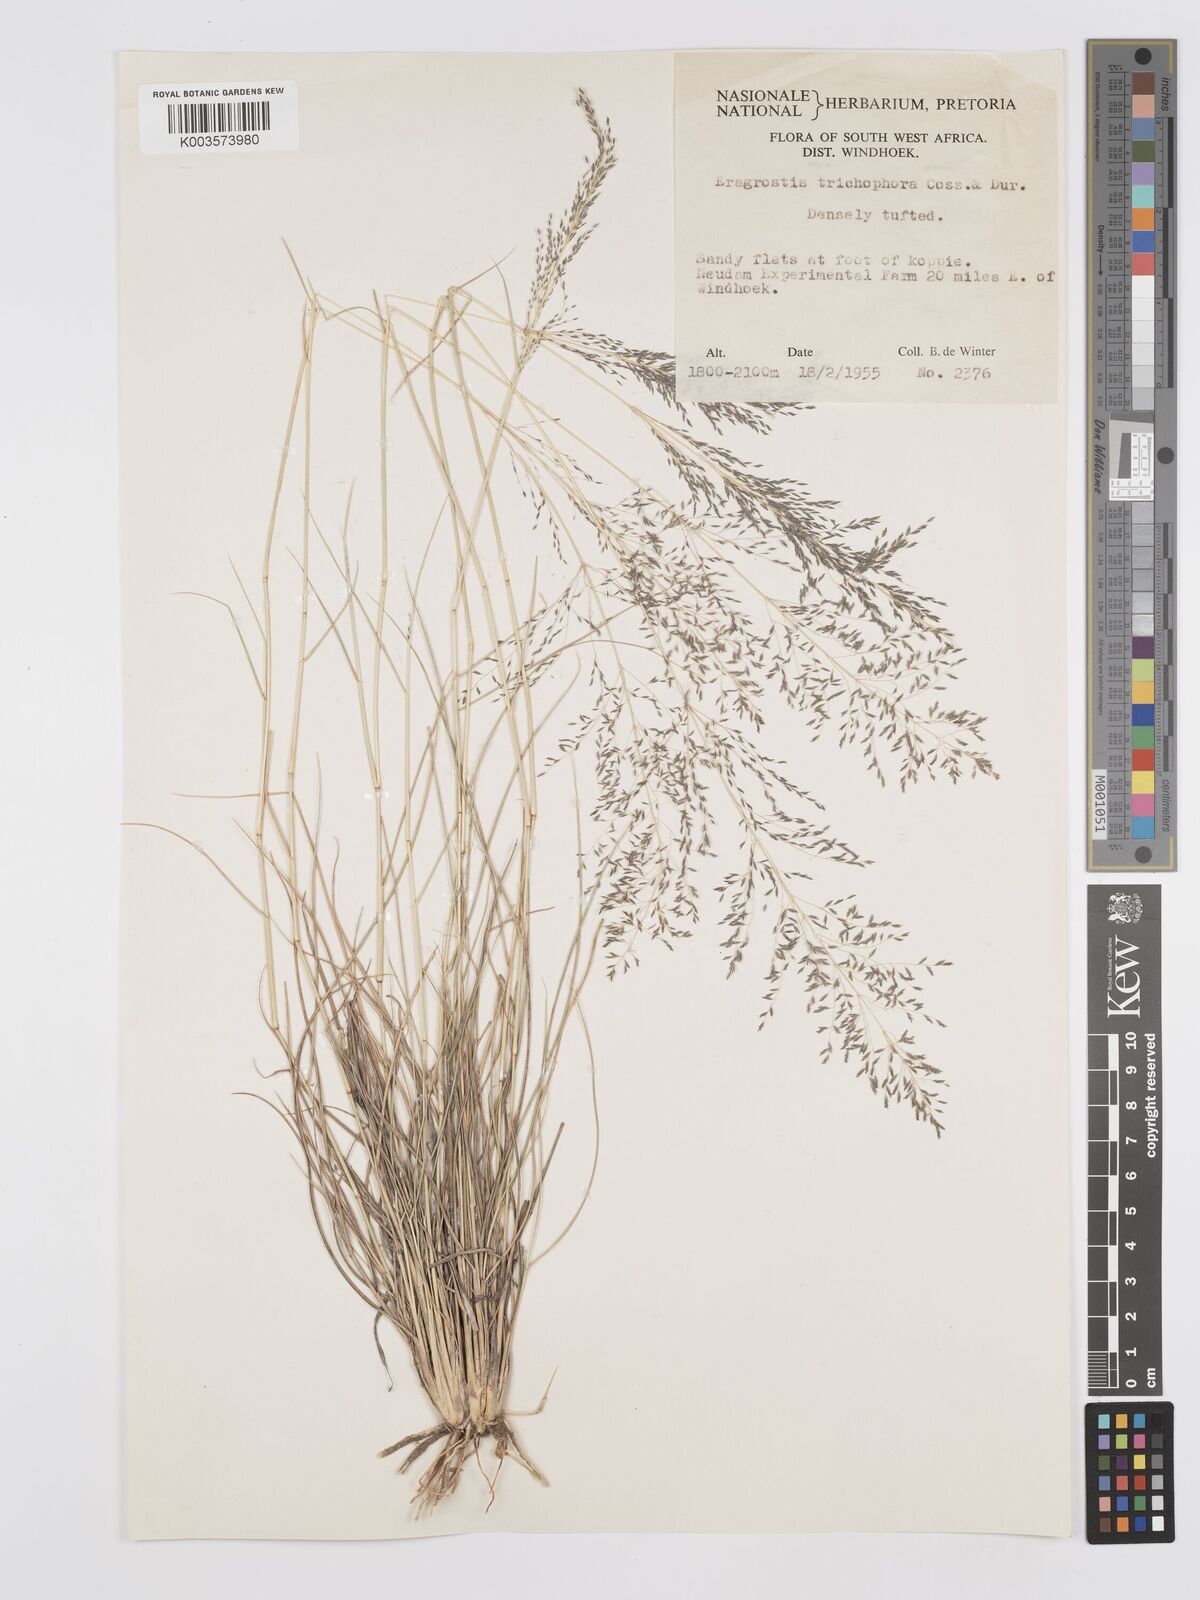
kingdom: Plantae
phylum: Tracheophyta
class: Liliopsida
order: Poales
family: Poaceae
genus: Eragrostis
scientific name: Eragrostis cylindriflora
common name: Cylinderflower lovegrass
